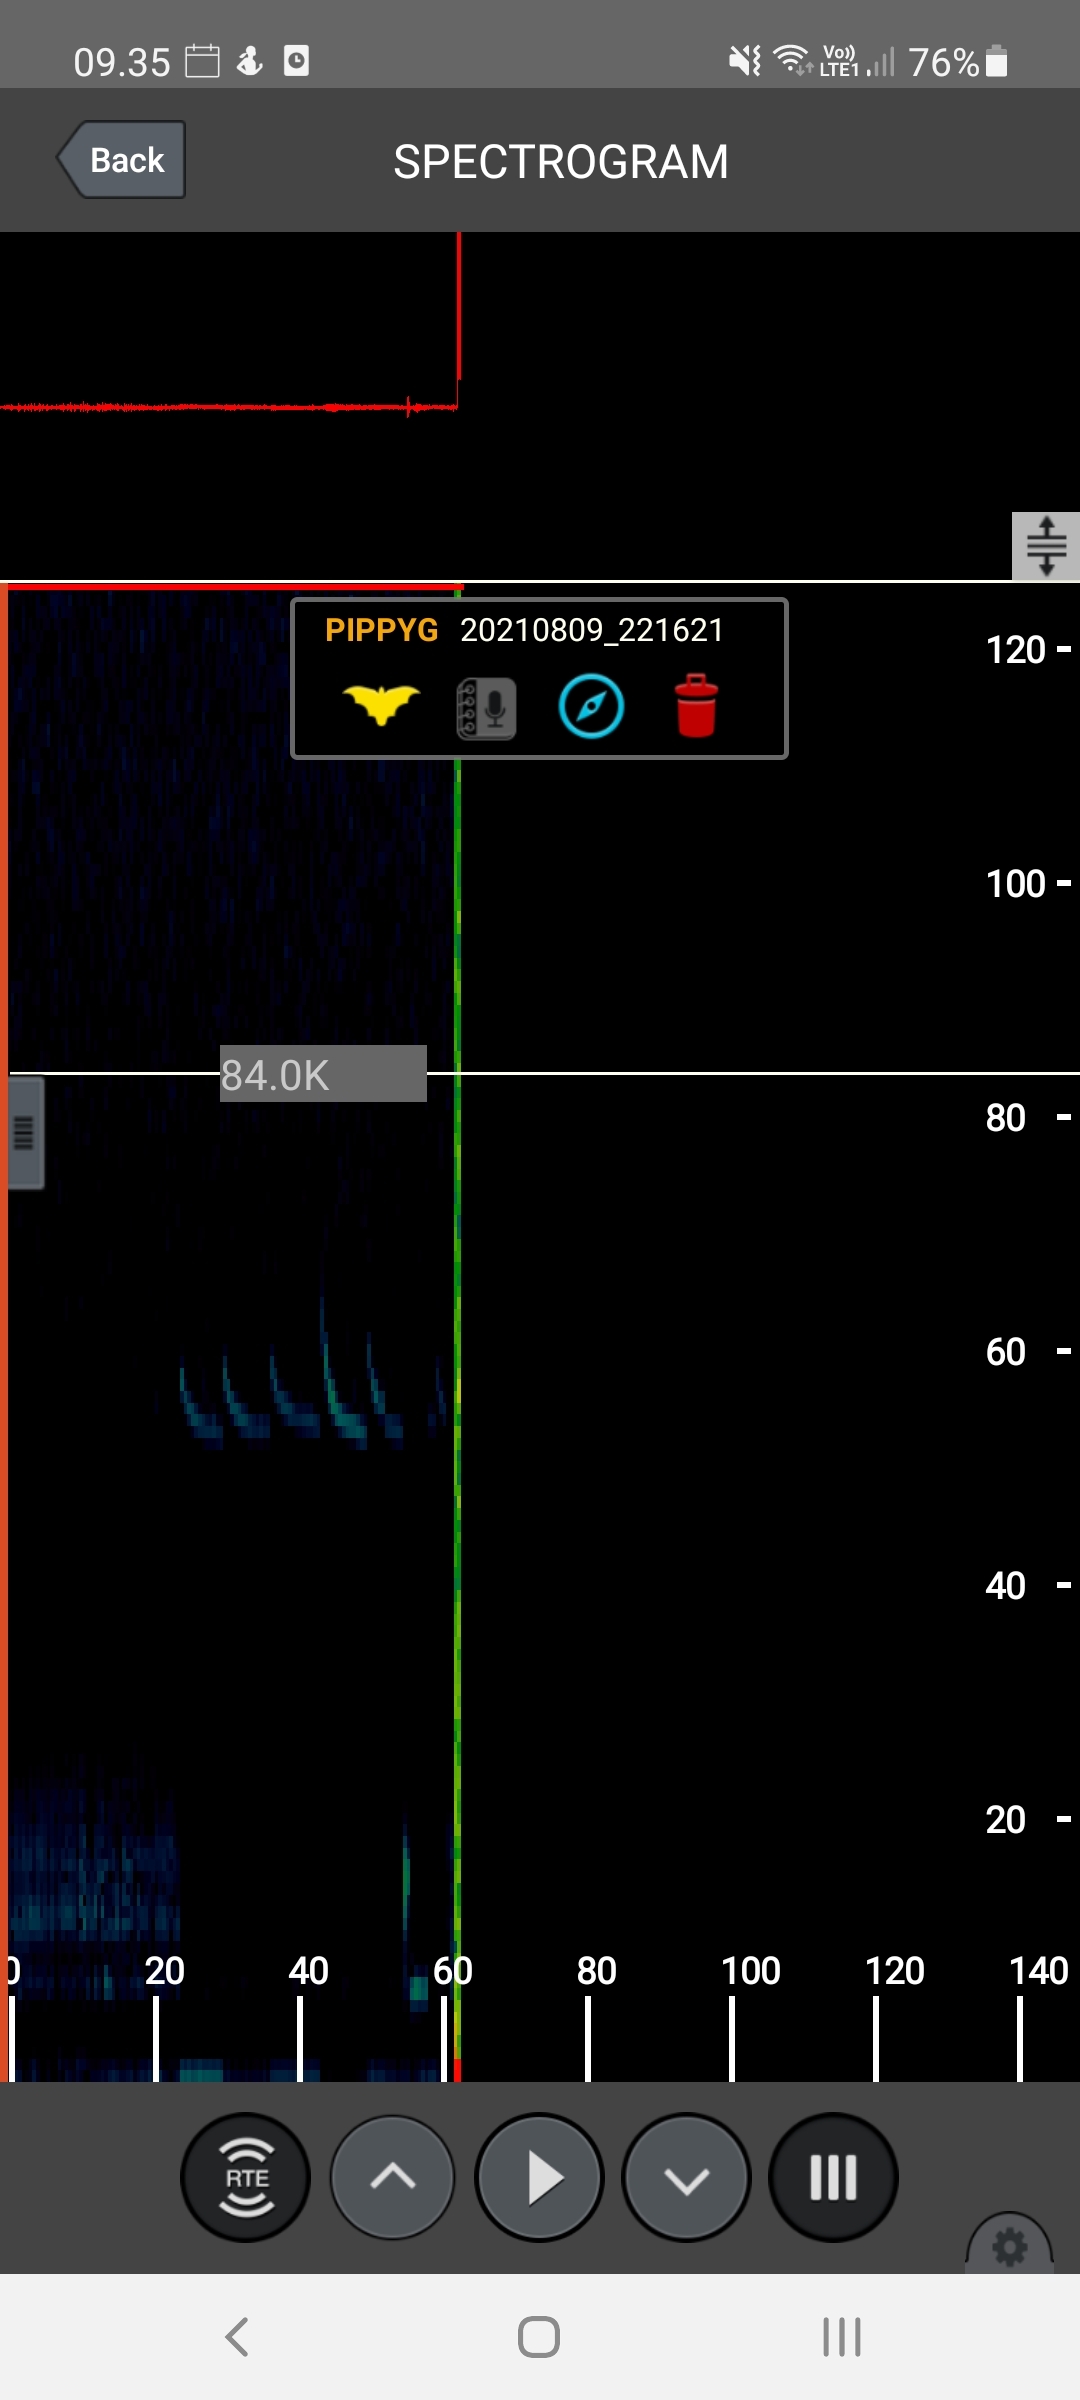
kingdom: Animalia
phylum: Chordata
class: Mammalia
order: Chiroptera
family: Vespertilionidae
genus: Pipistrellus
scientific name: Pipistrellus pygmaeus
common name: Dværgflagermus
